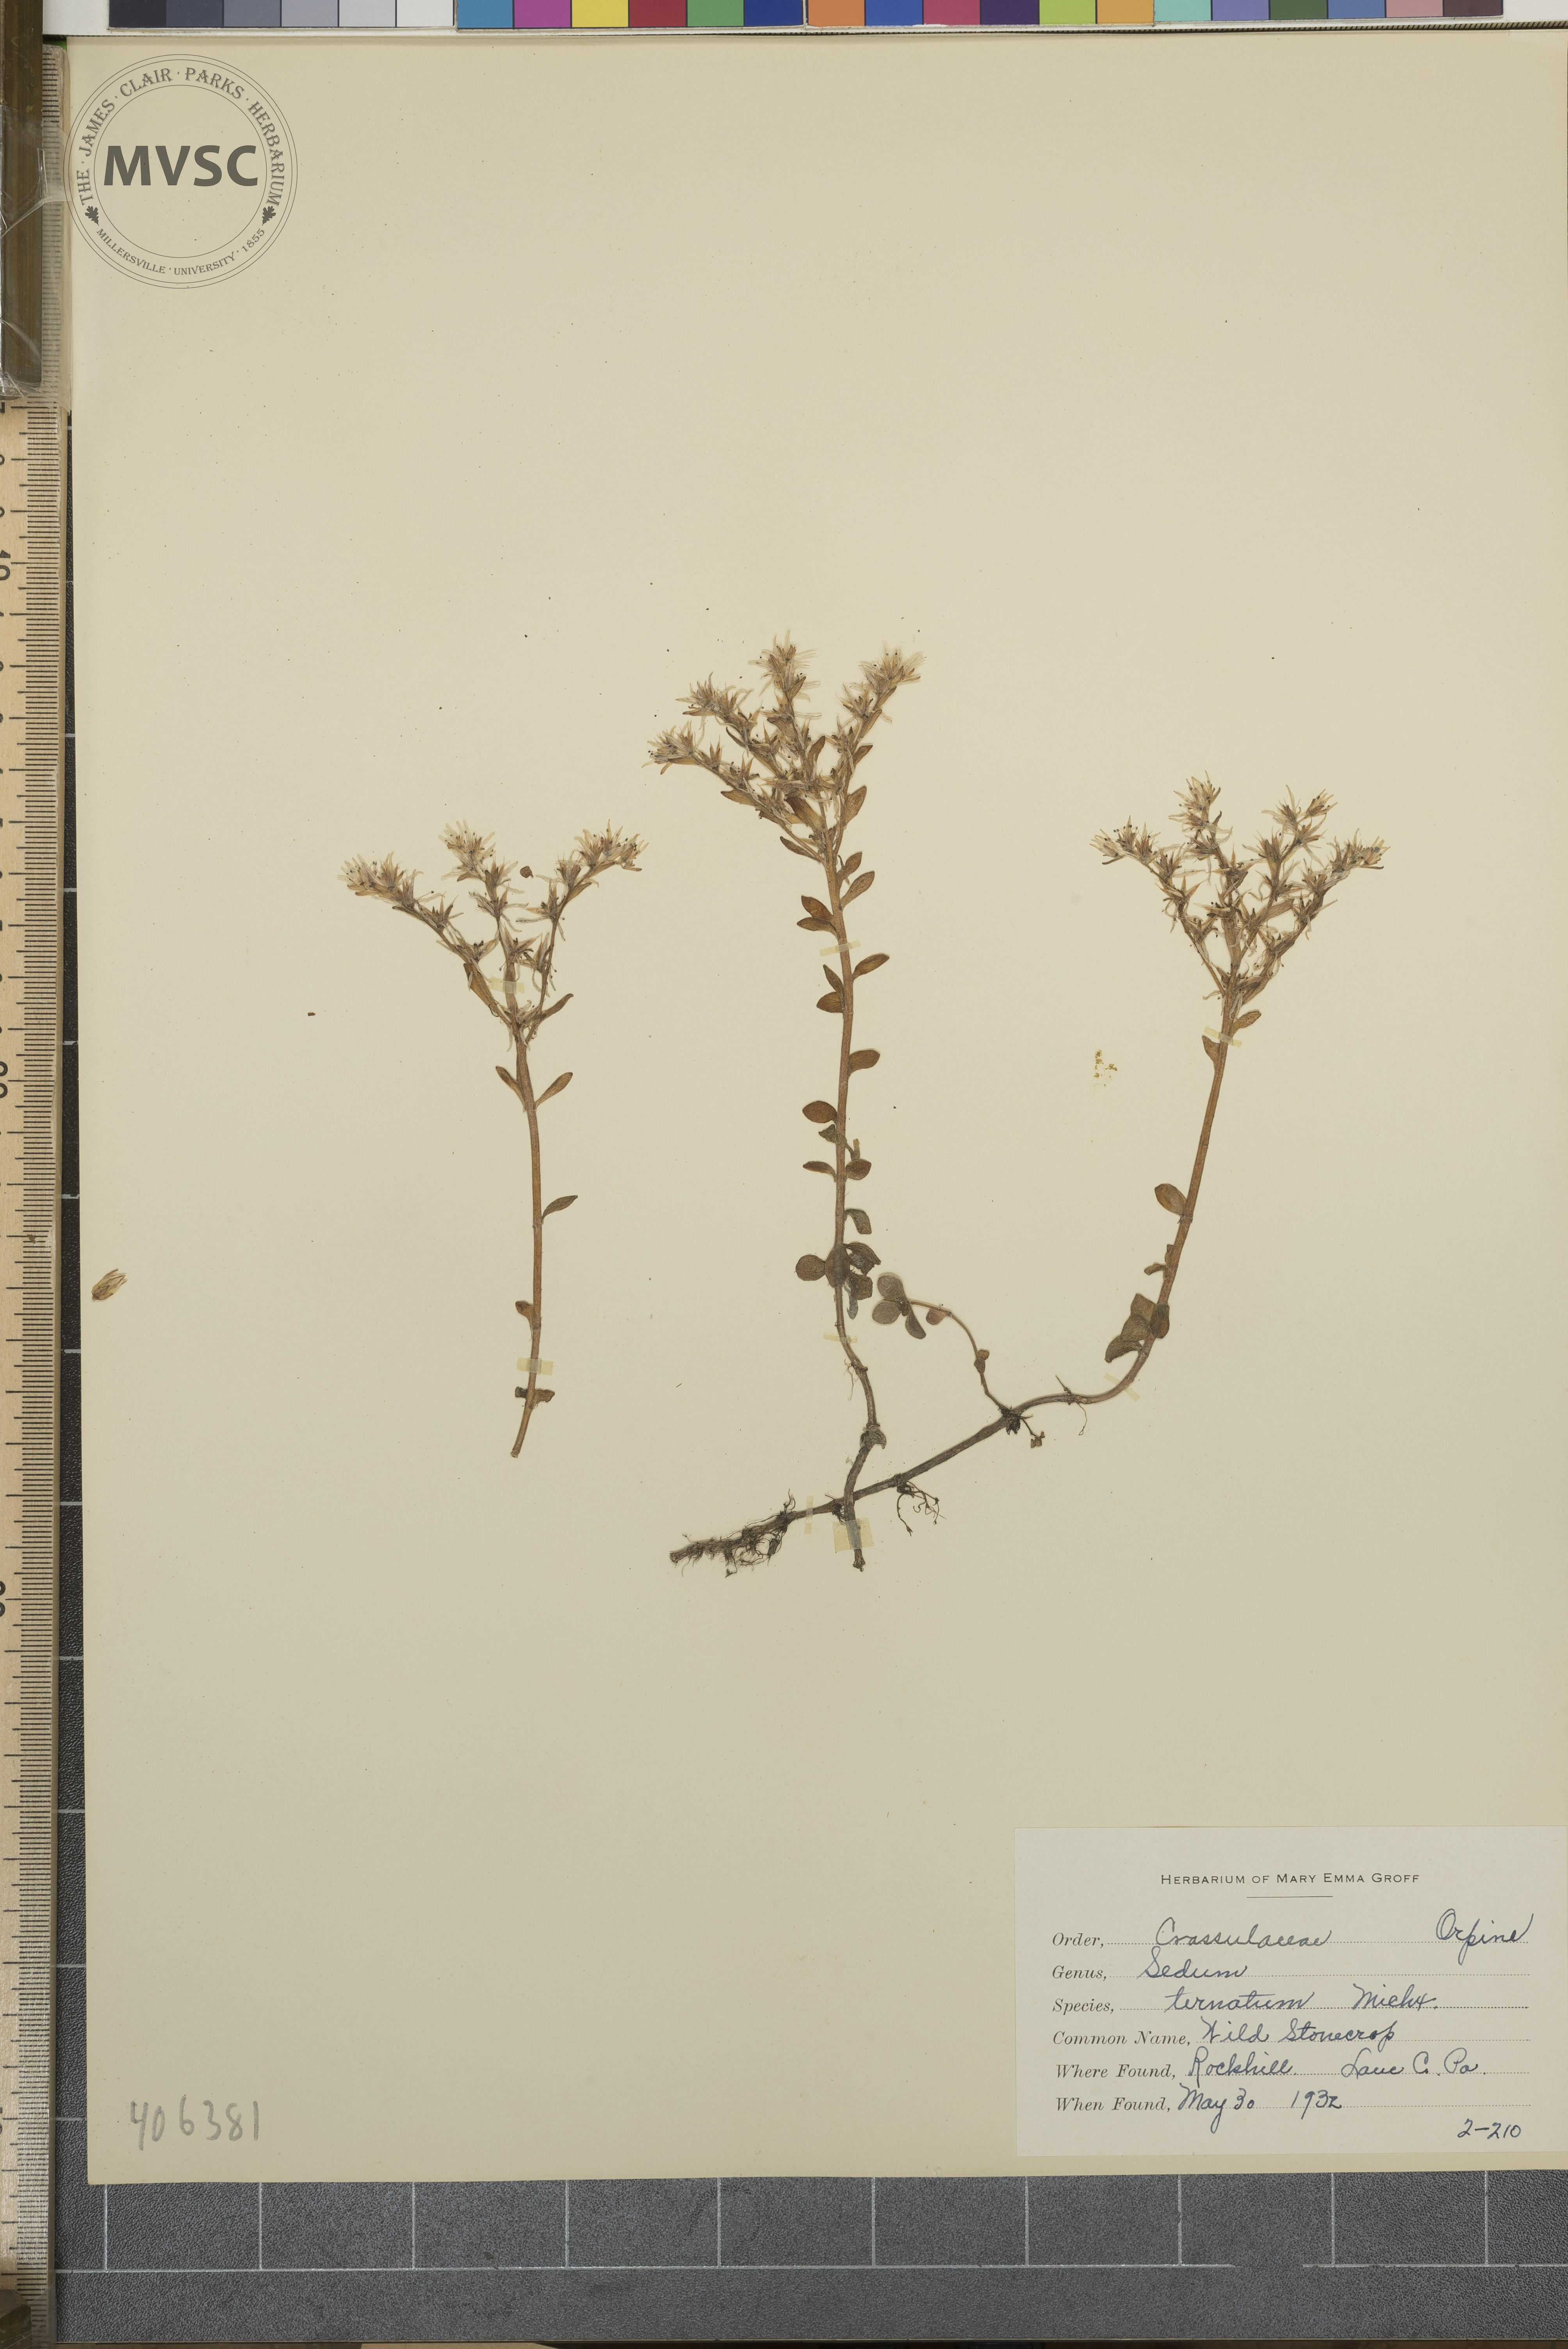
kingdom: Plantae
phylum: Tracheophyta
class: Magnoliopsida
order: Saxifragales
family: Crassulaceae
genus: Sedum
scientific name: Sedum ternatum
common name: wild stonecrop
